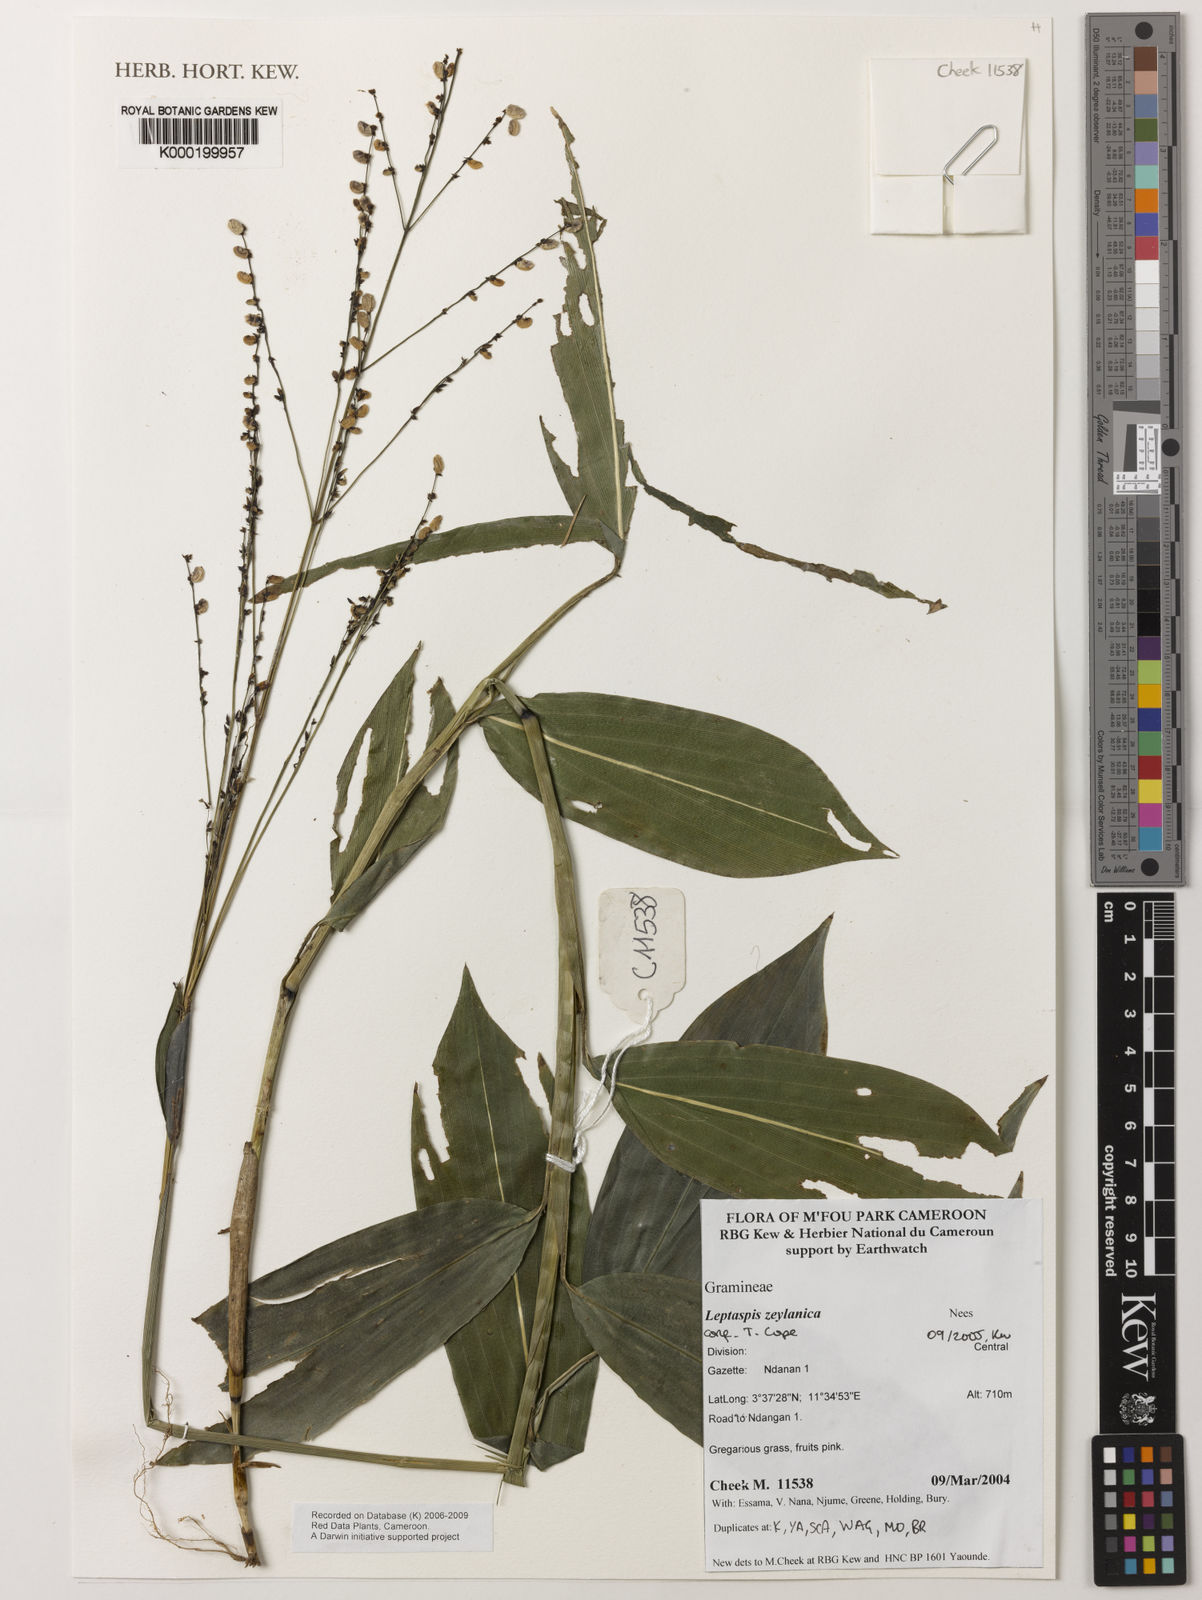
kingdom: Plantae
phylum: Tracheophyta
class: Liliopsida
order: Poales
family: Poaceae
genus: Leptaspis
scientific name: Leptaspis zeylanica
